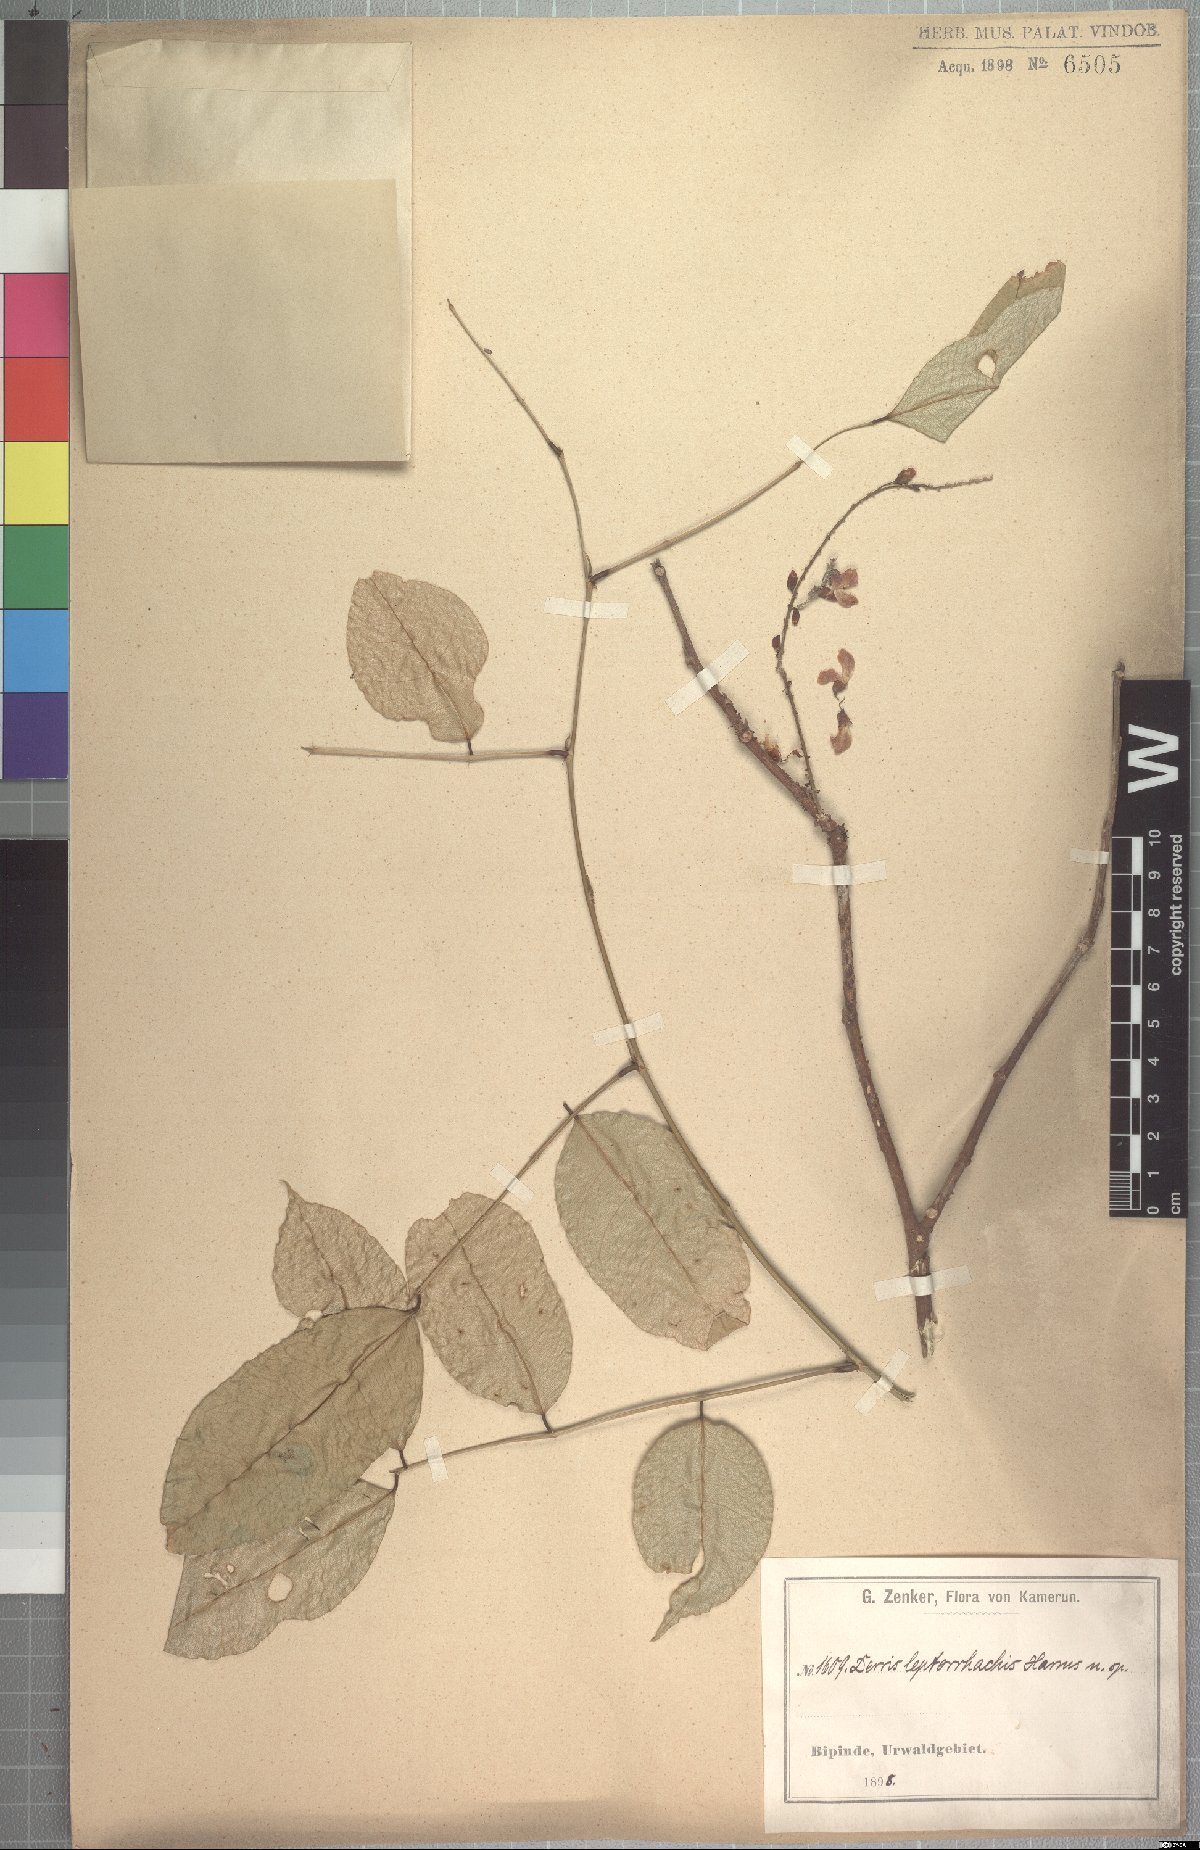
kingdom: Plantae
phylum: Tracheophyta
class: Magnoliopsida
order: Fabales
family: Fabaceae
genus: Millettia
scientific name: Millettia griffoniana
